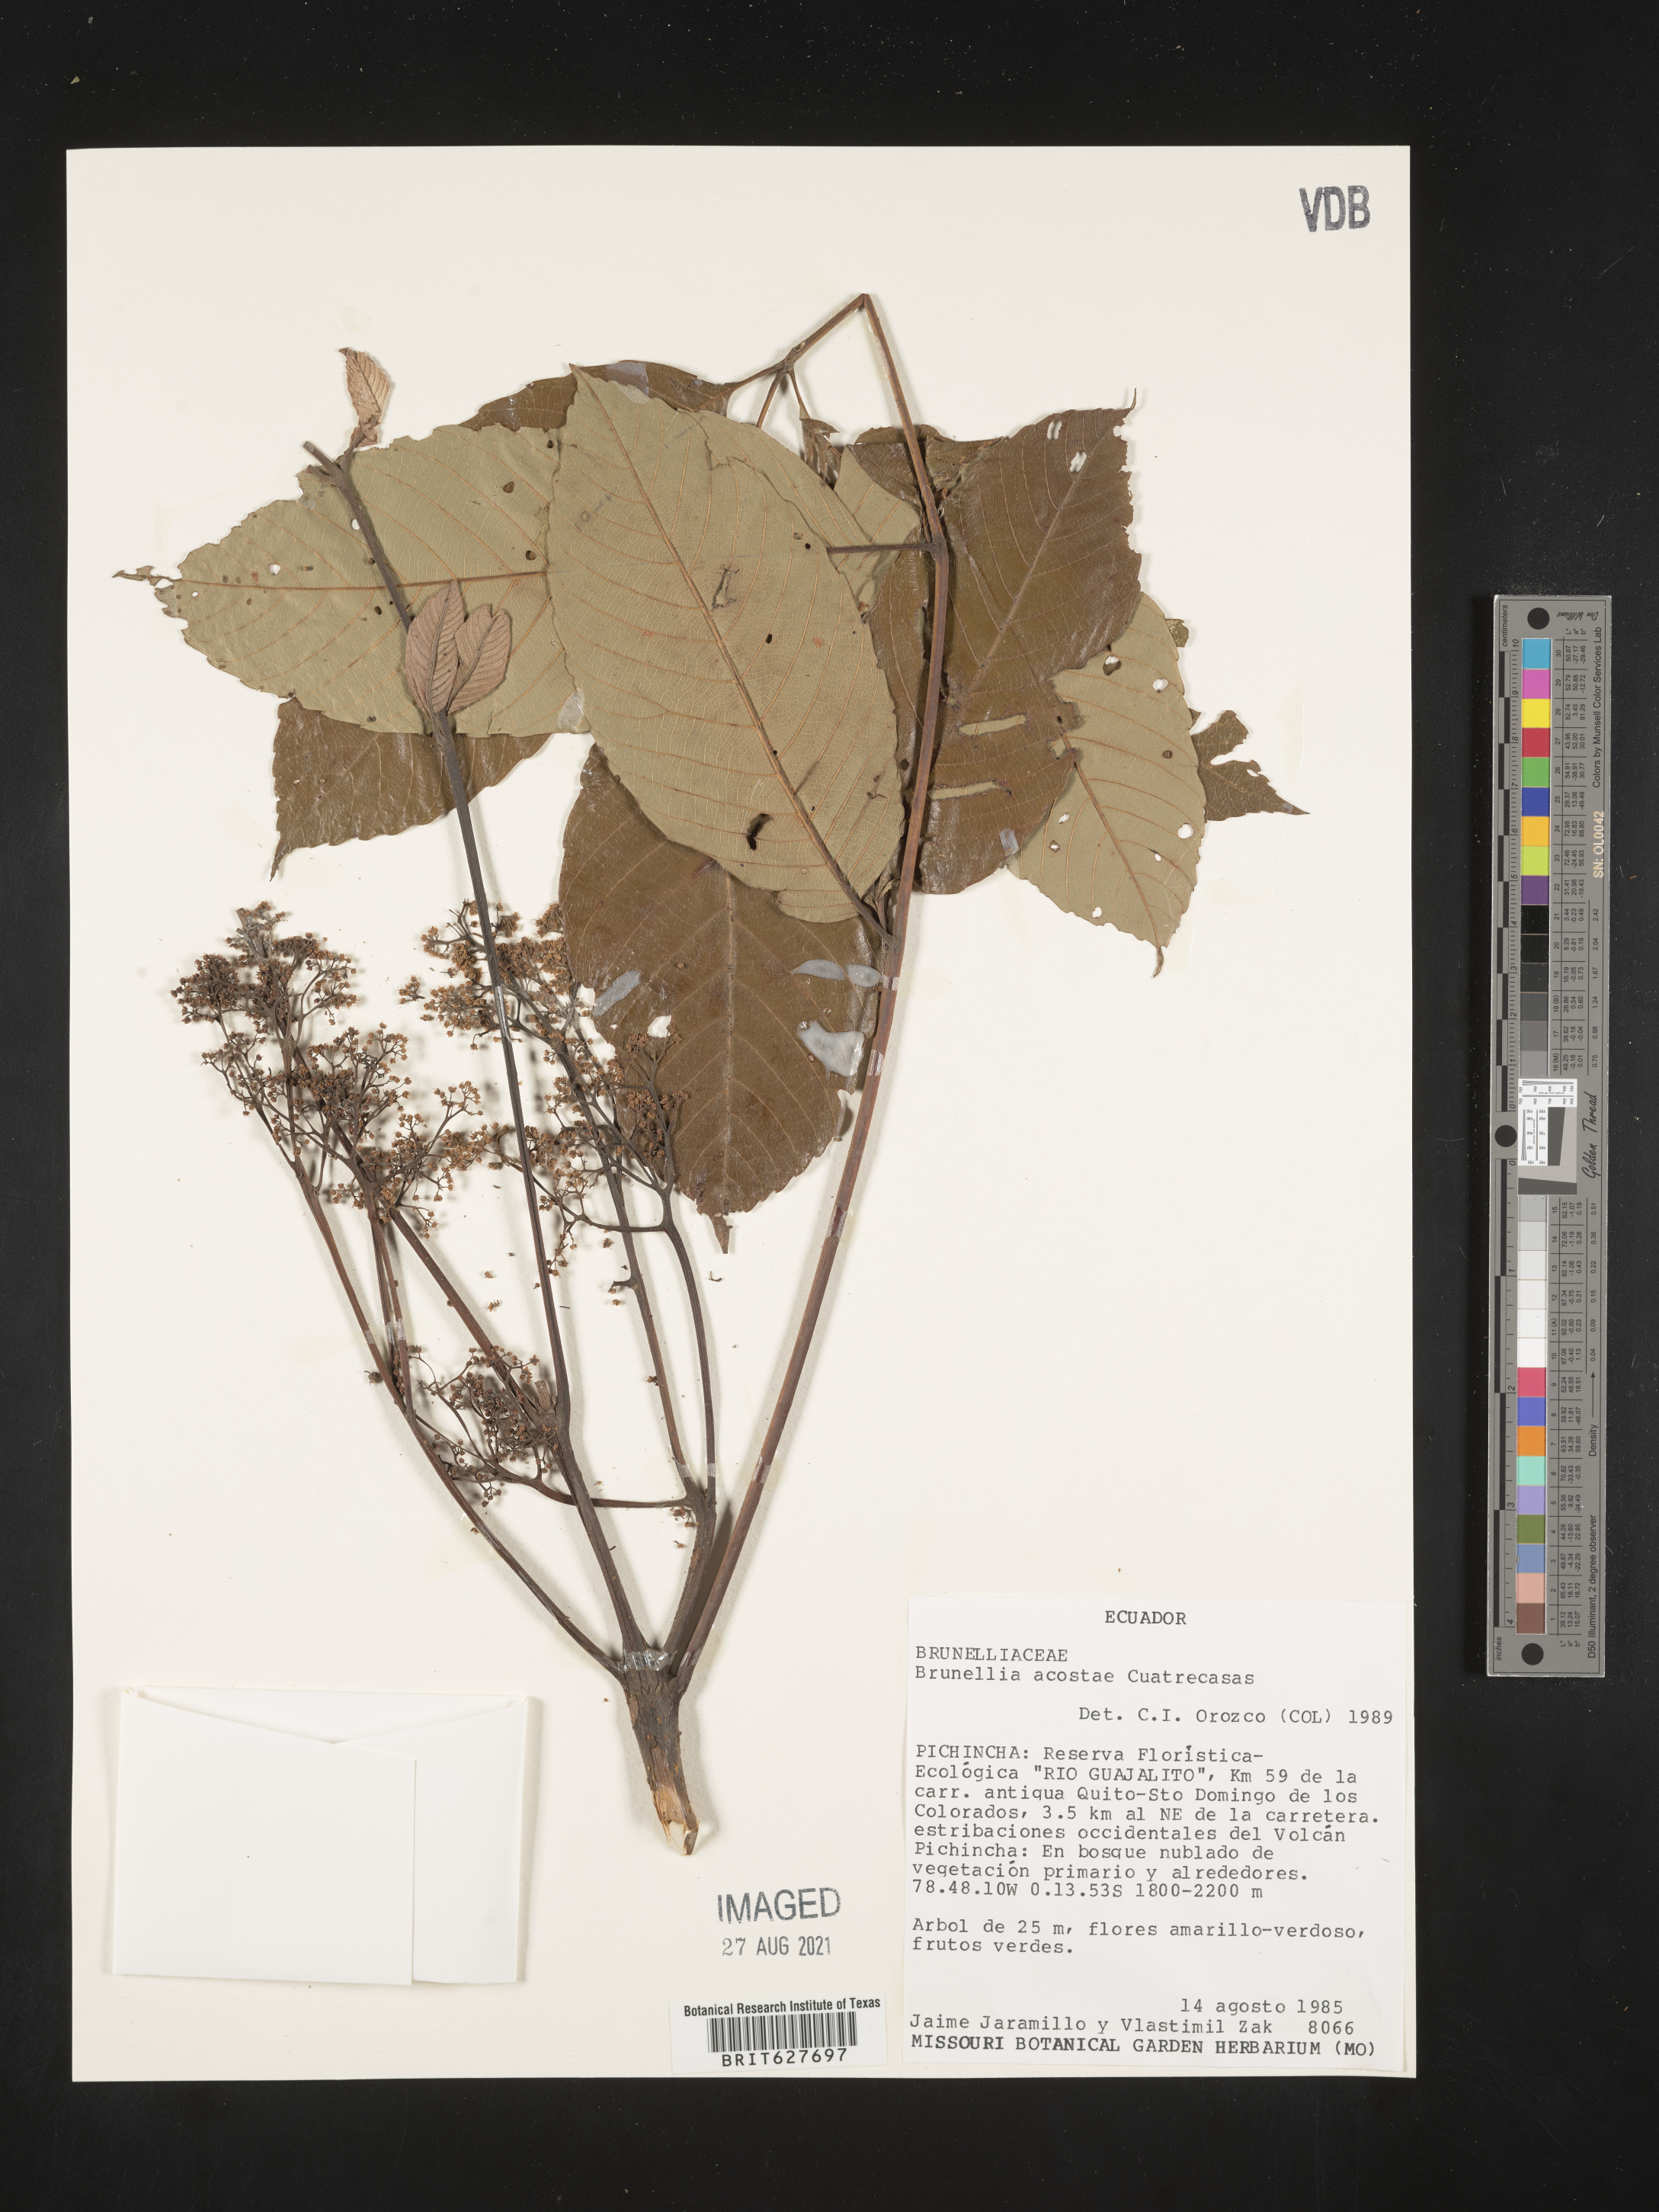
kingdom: Plantae
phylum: Tracheophyta
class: Magnoliopsida
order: Oxalidales
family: Brunelliaceae
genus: Brunellia
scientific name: Brunellia acostae
